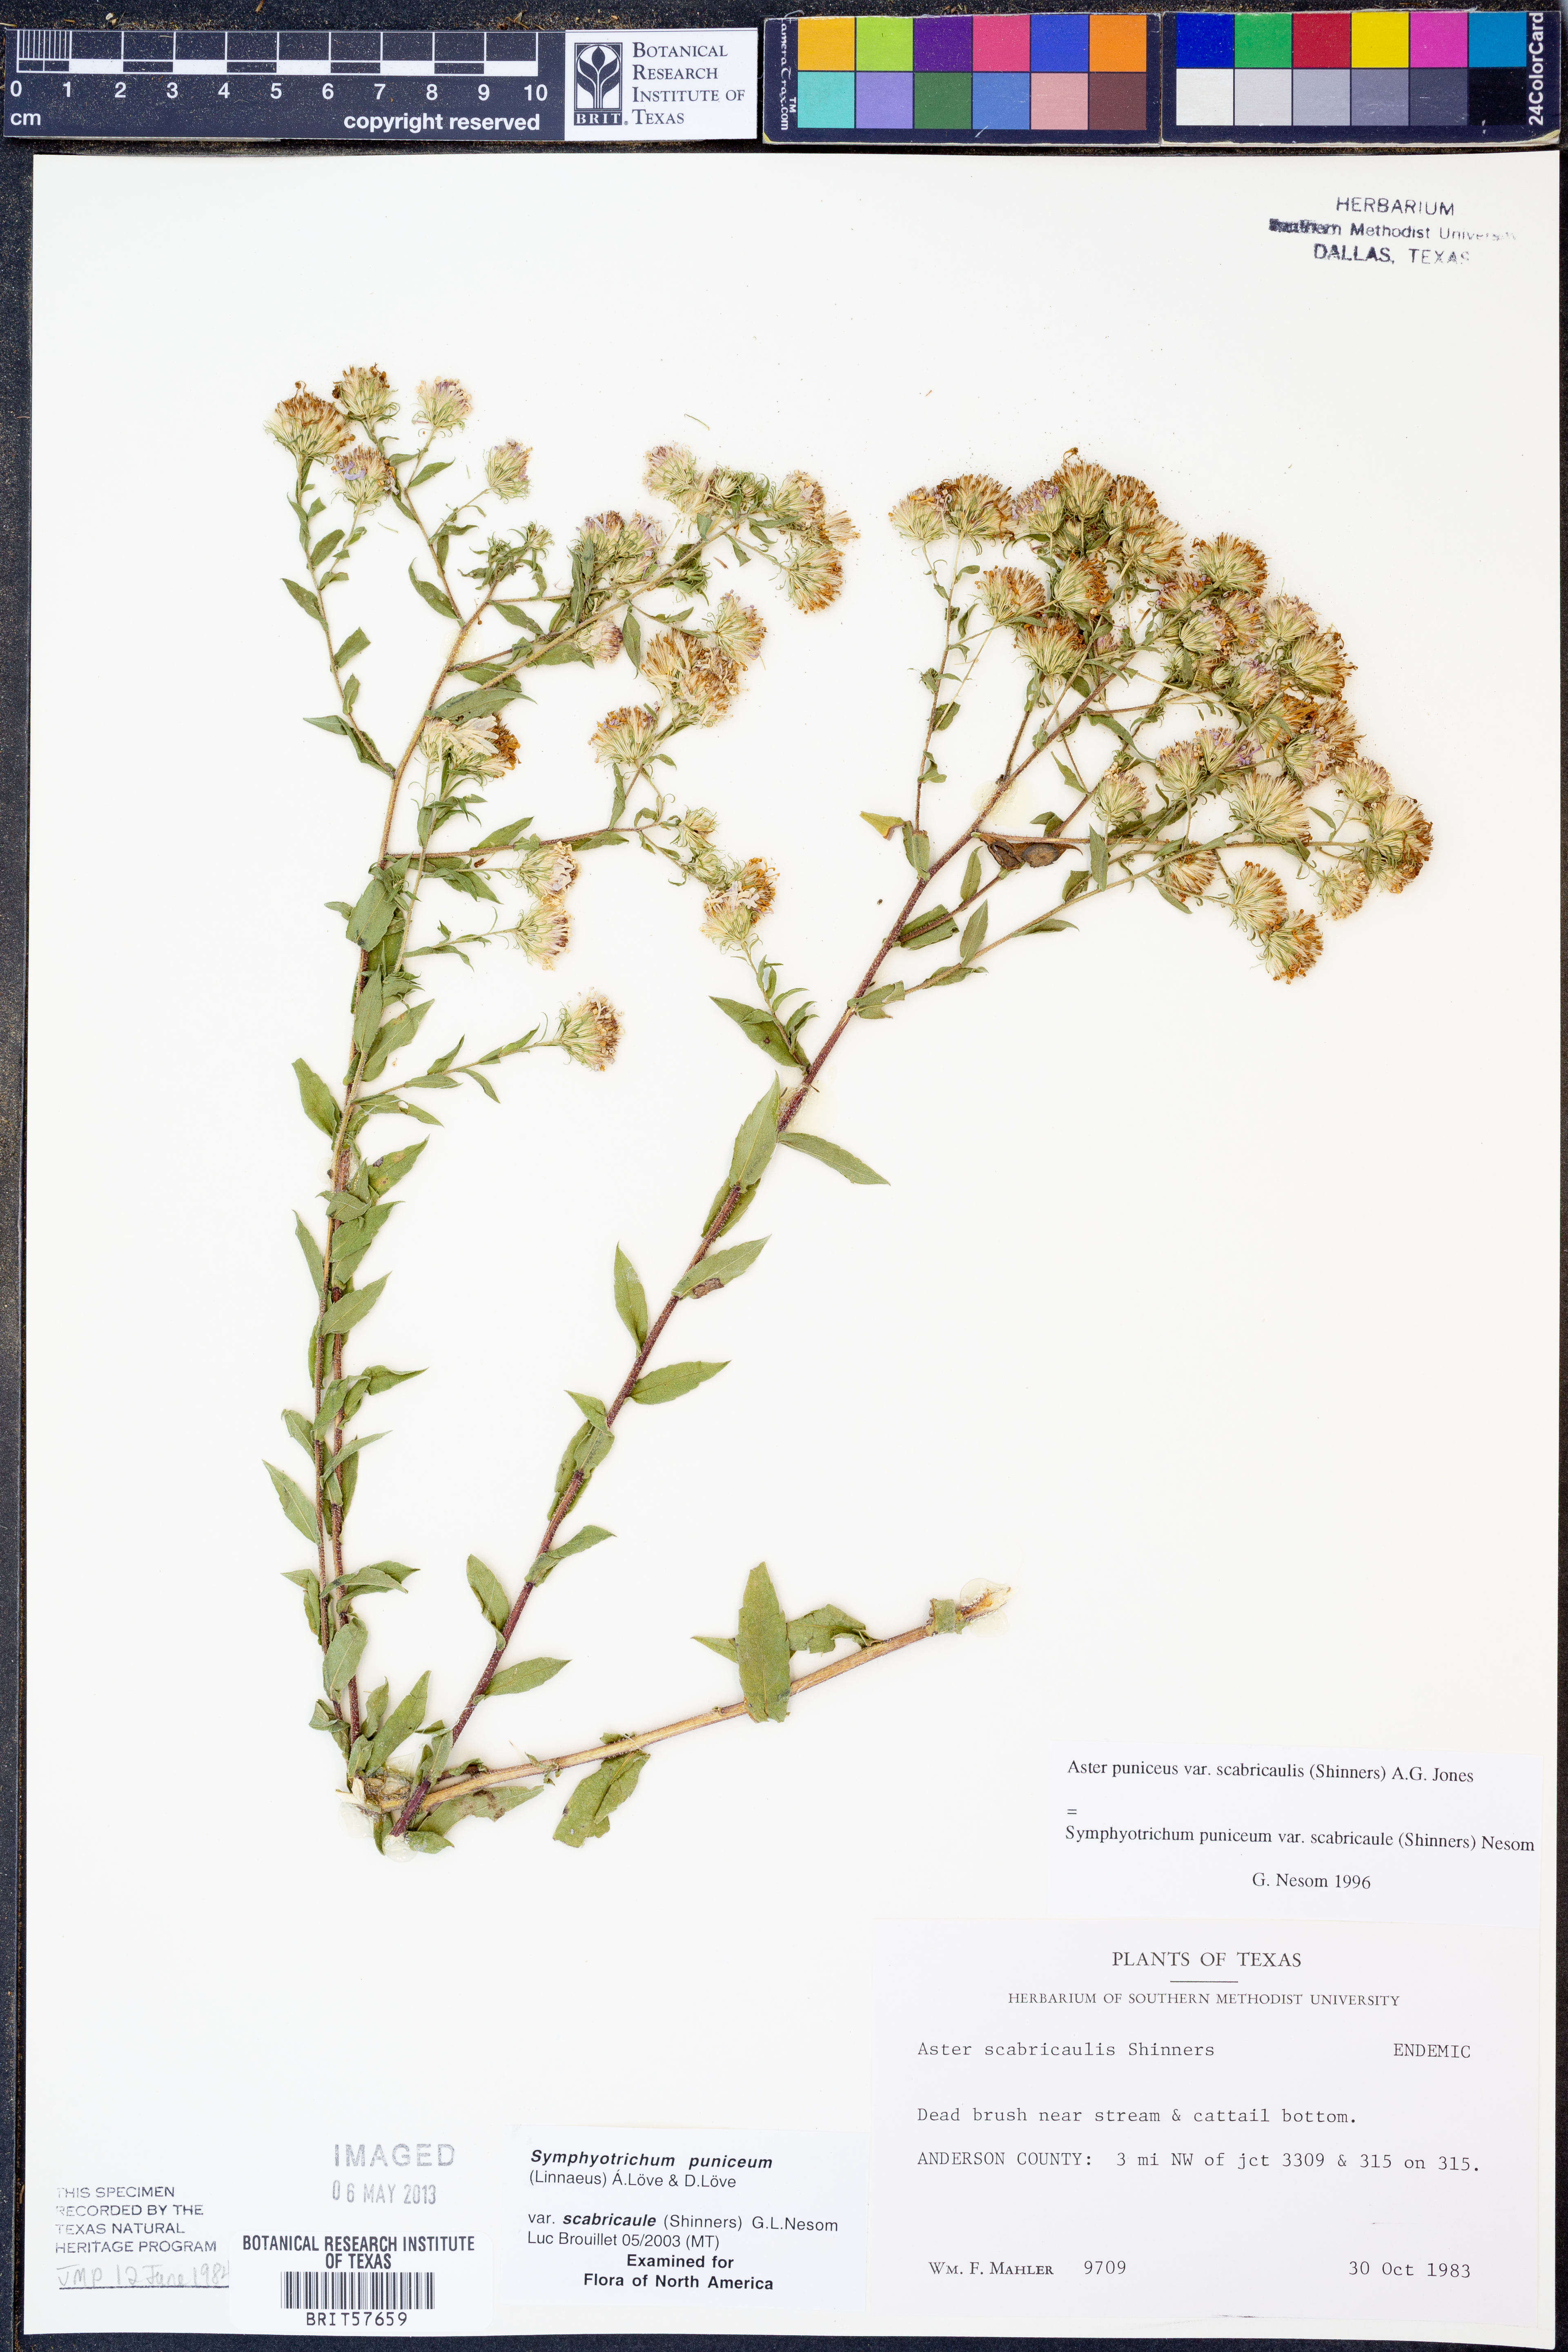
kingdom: Plantae
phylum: Tracheophyta
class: Magnoliopsida
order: Asterales
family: Asteraceae
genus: Symphyotrichum
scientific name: Symphyotrichum puniceum
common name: Bog aster
